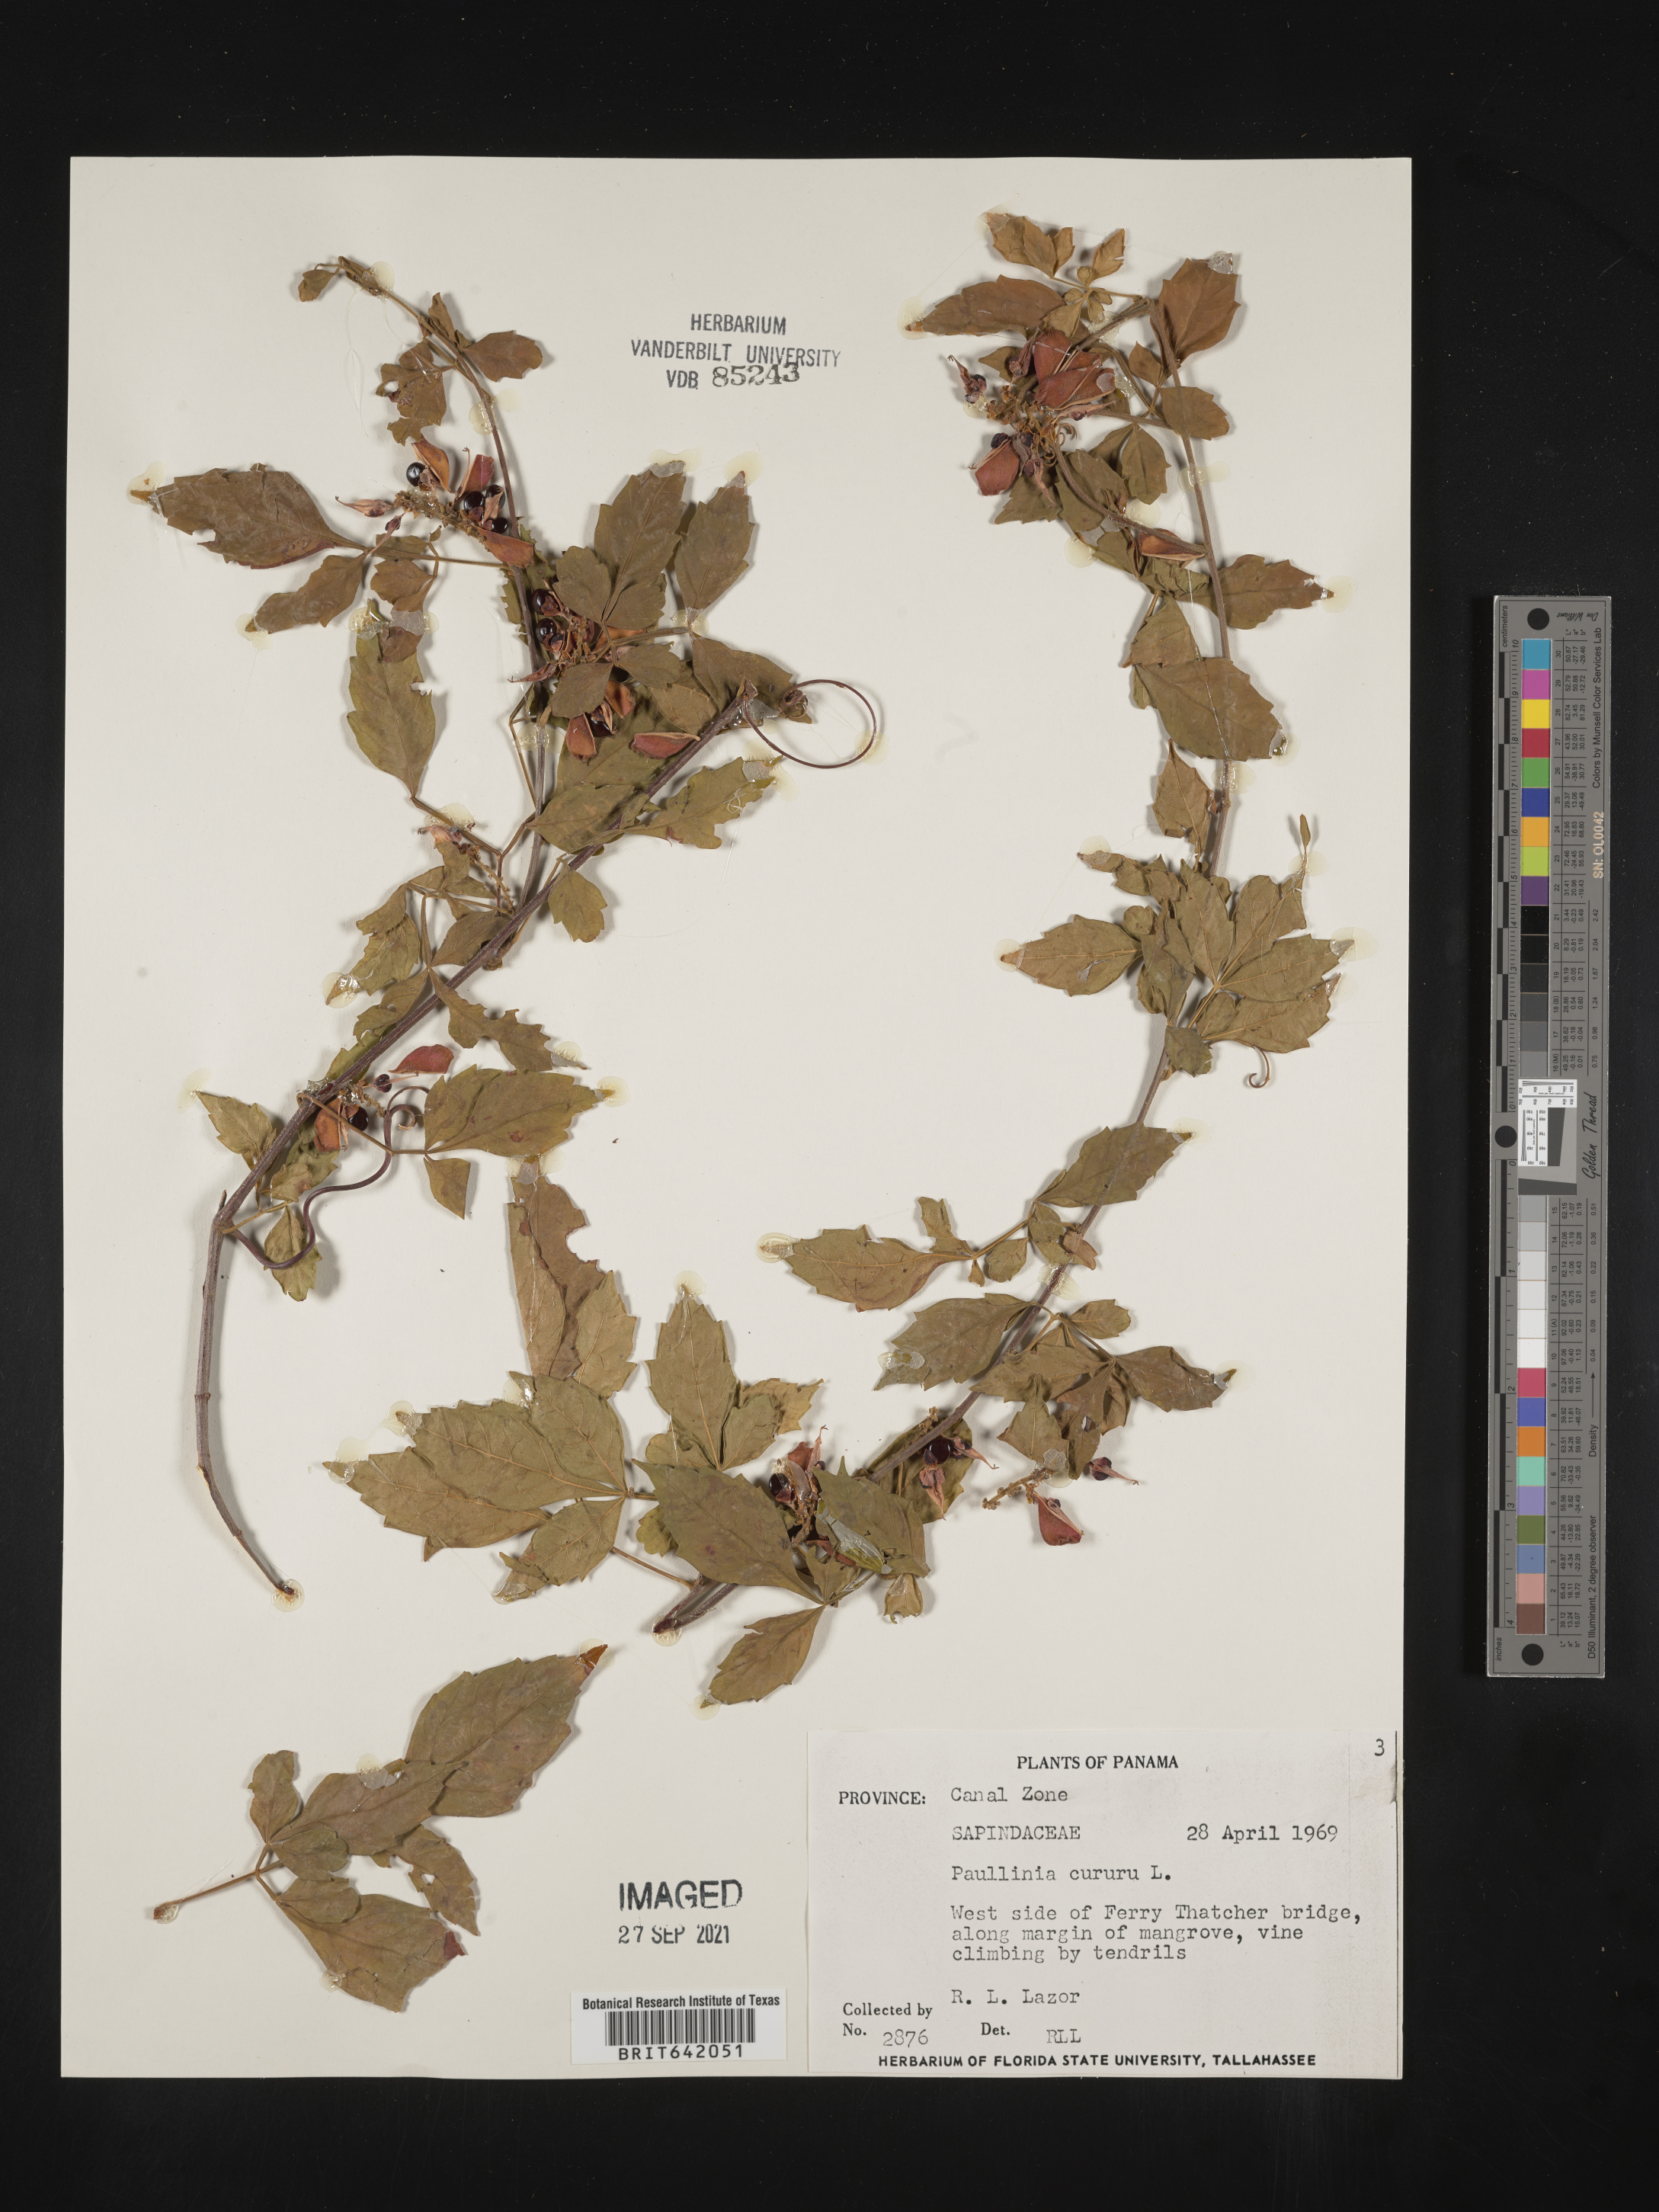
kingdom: Plantae
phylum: Tracheophyta
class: Magnoliopsida
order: Sapindales
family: Sapindaceae
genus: Paullinia
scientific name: Paullinia
